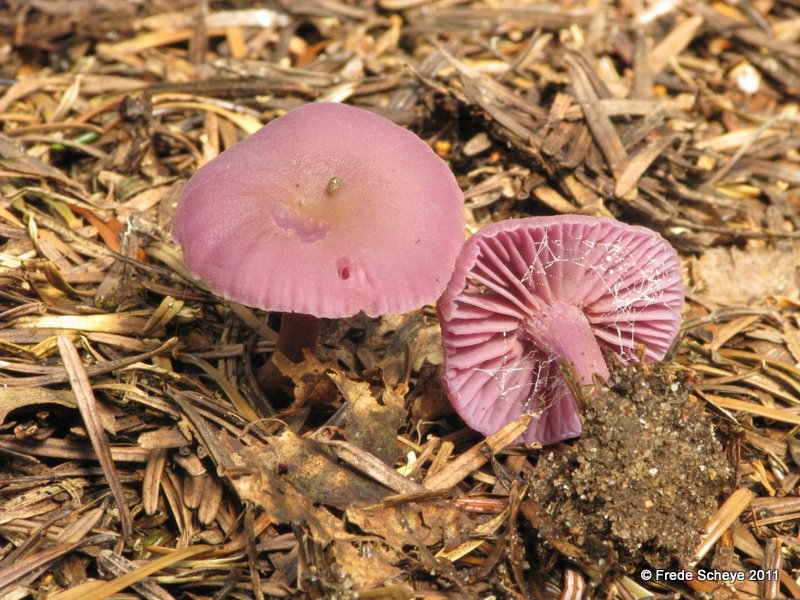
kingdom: Fungi
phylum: Basidiomycota
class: Agaricomycetes
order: Agaricales
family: Hydnangiaceae
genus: Laccaria
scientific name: Laccaria amethystina
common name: violet ametysthat
